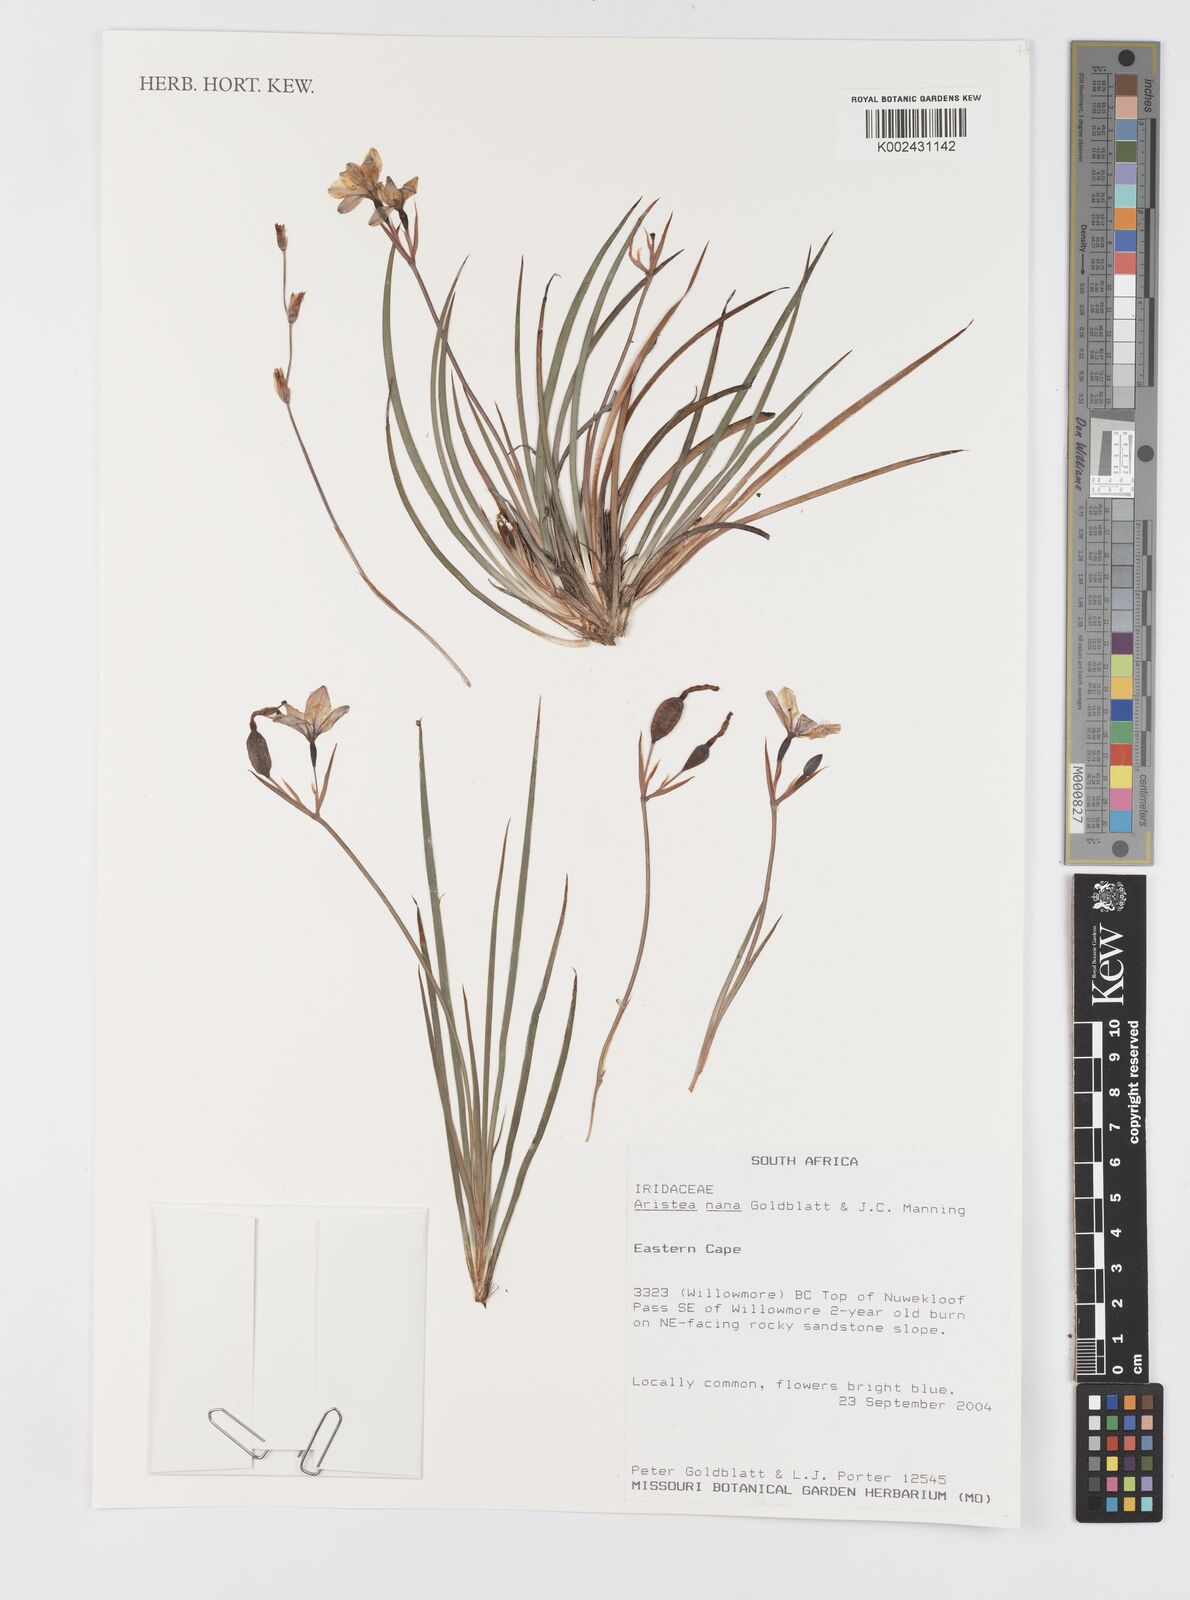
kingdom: Plantae
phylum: Tracheophyta
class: Liliopsida
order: Asparagales
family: Iridaceae
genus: Aristea
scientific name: Aristea nana
